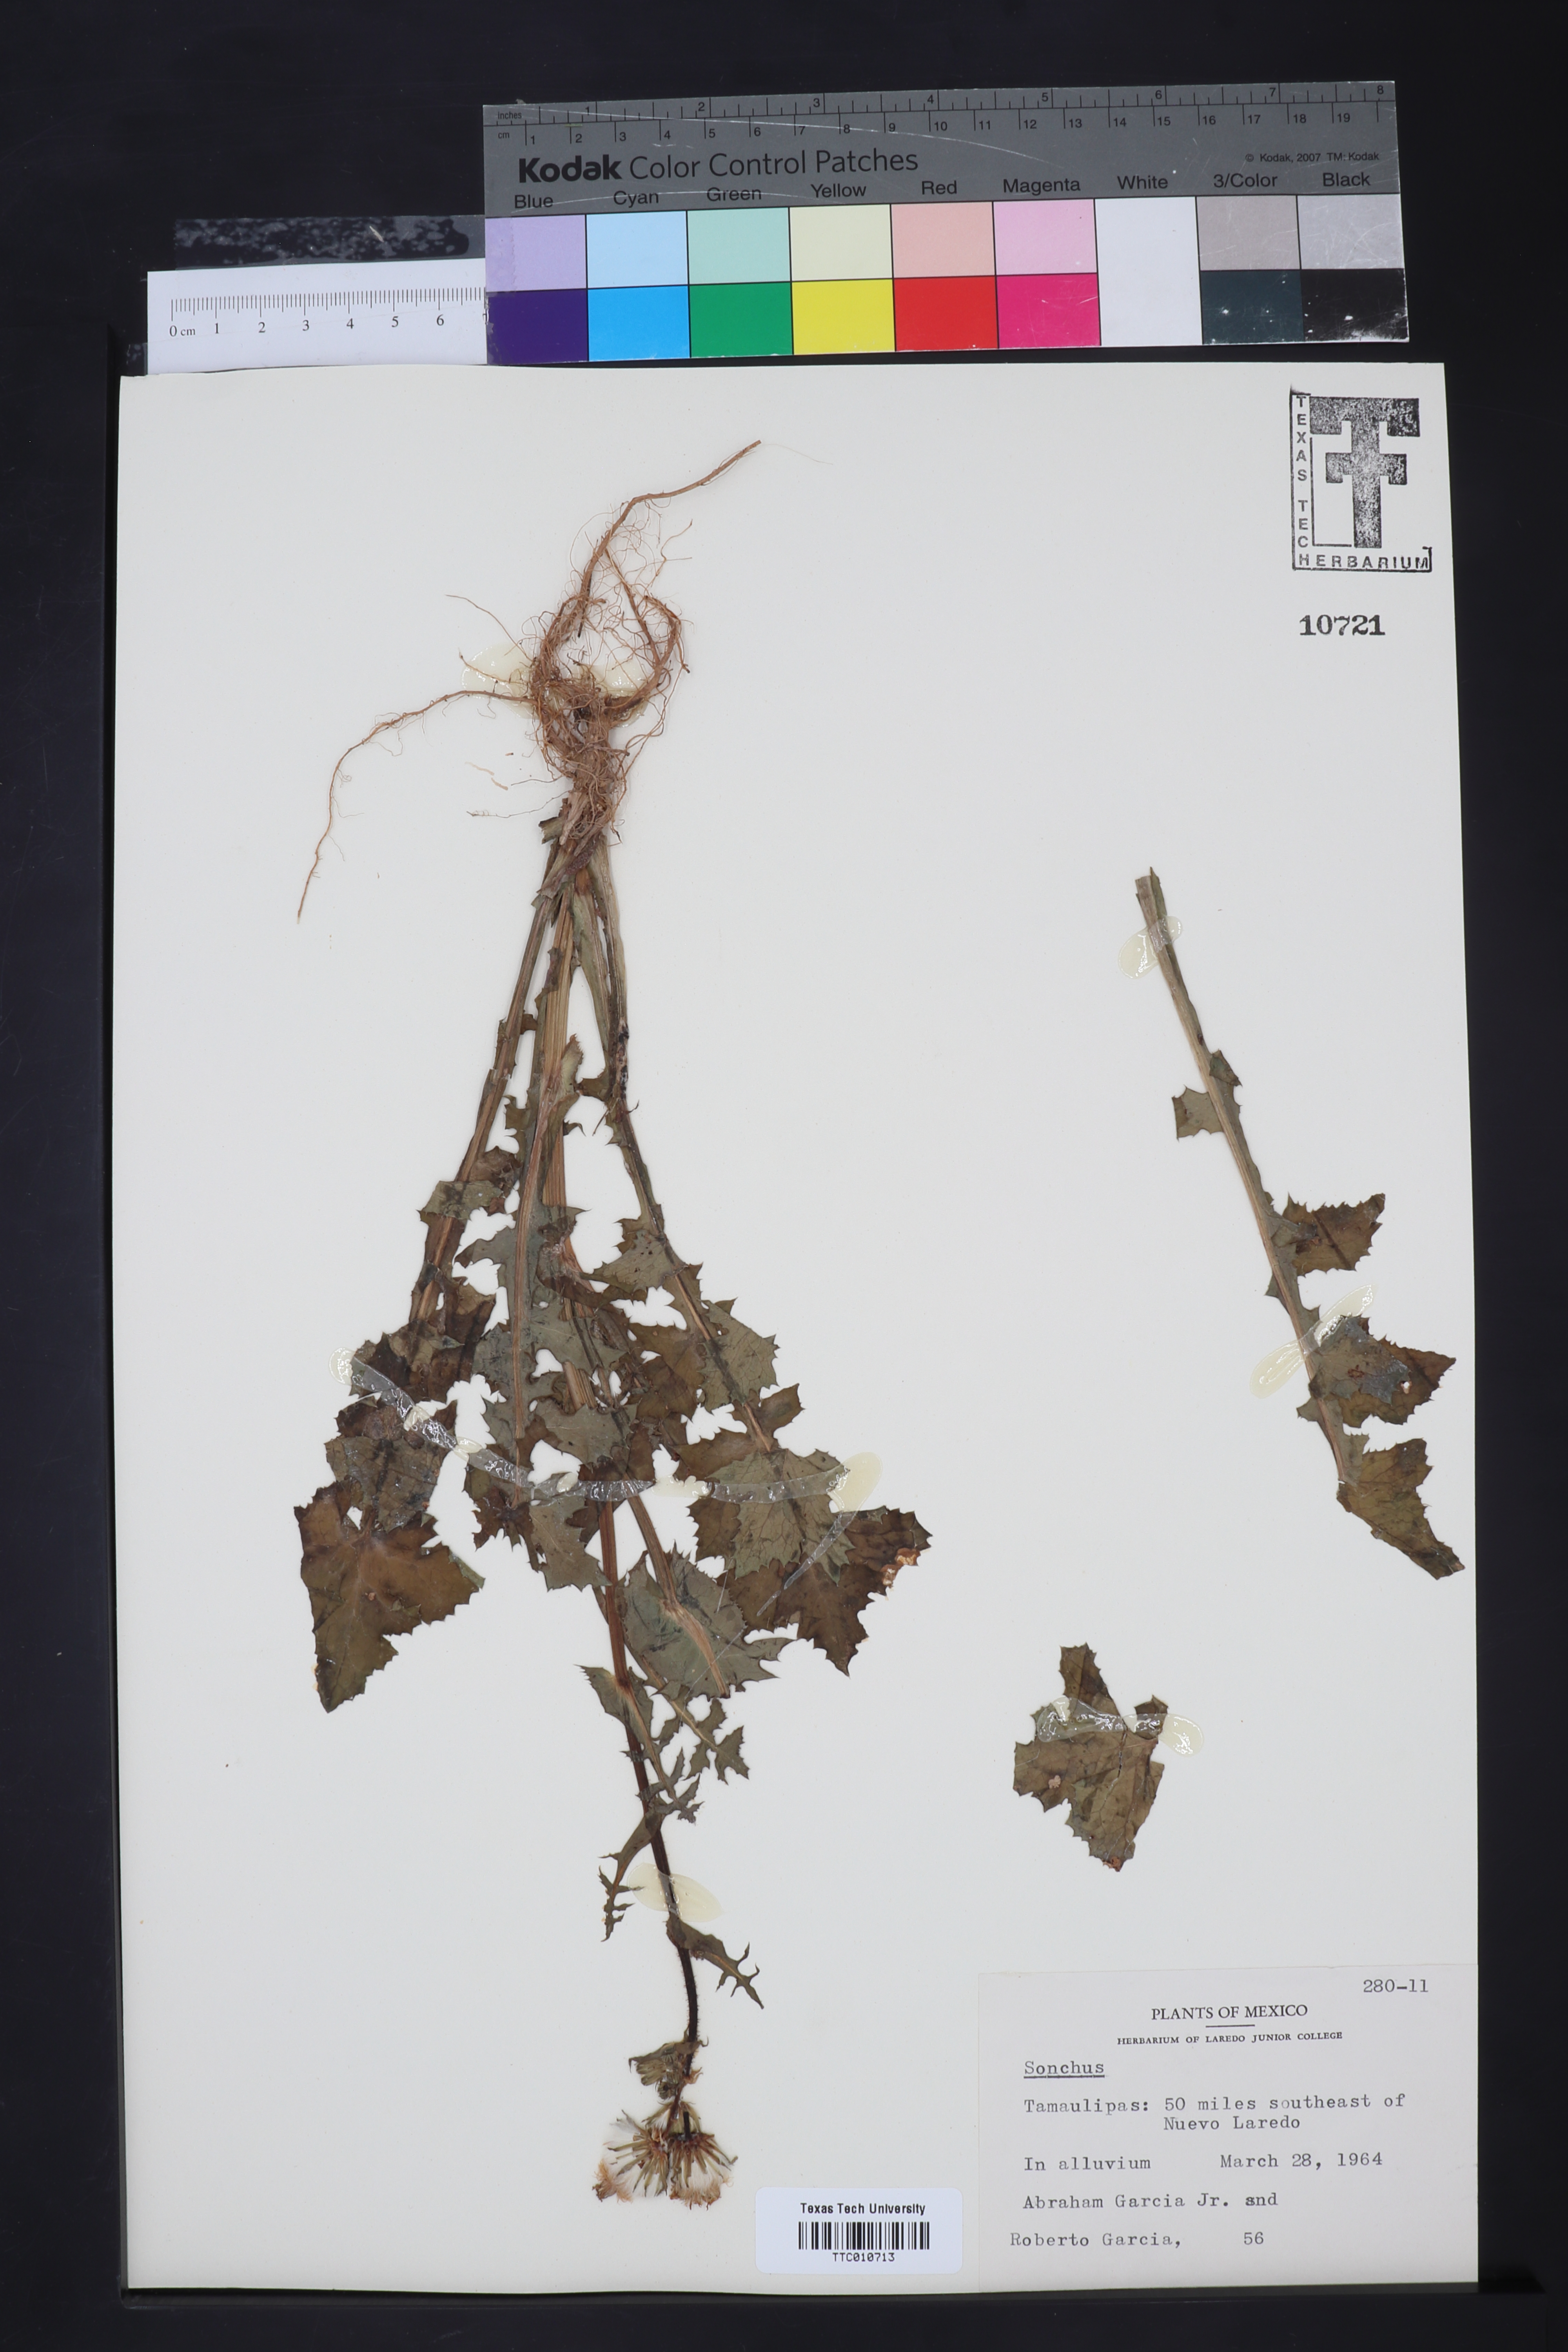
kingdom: Plantae
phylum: Tracheophyta
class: Magnoliopsida
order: Asterales
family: Asteraceae
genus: Sonchus
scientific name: Sonchus
